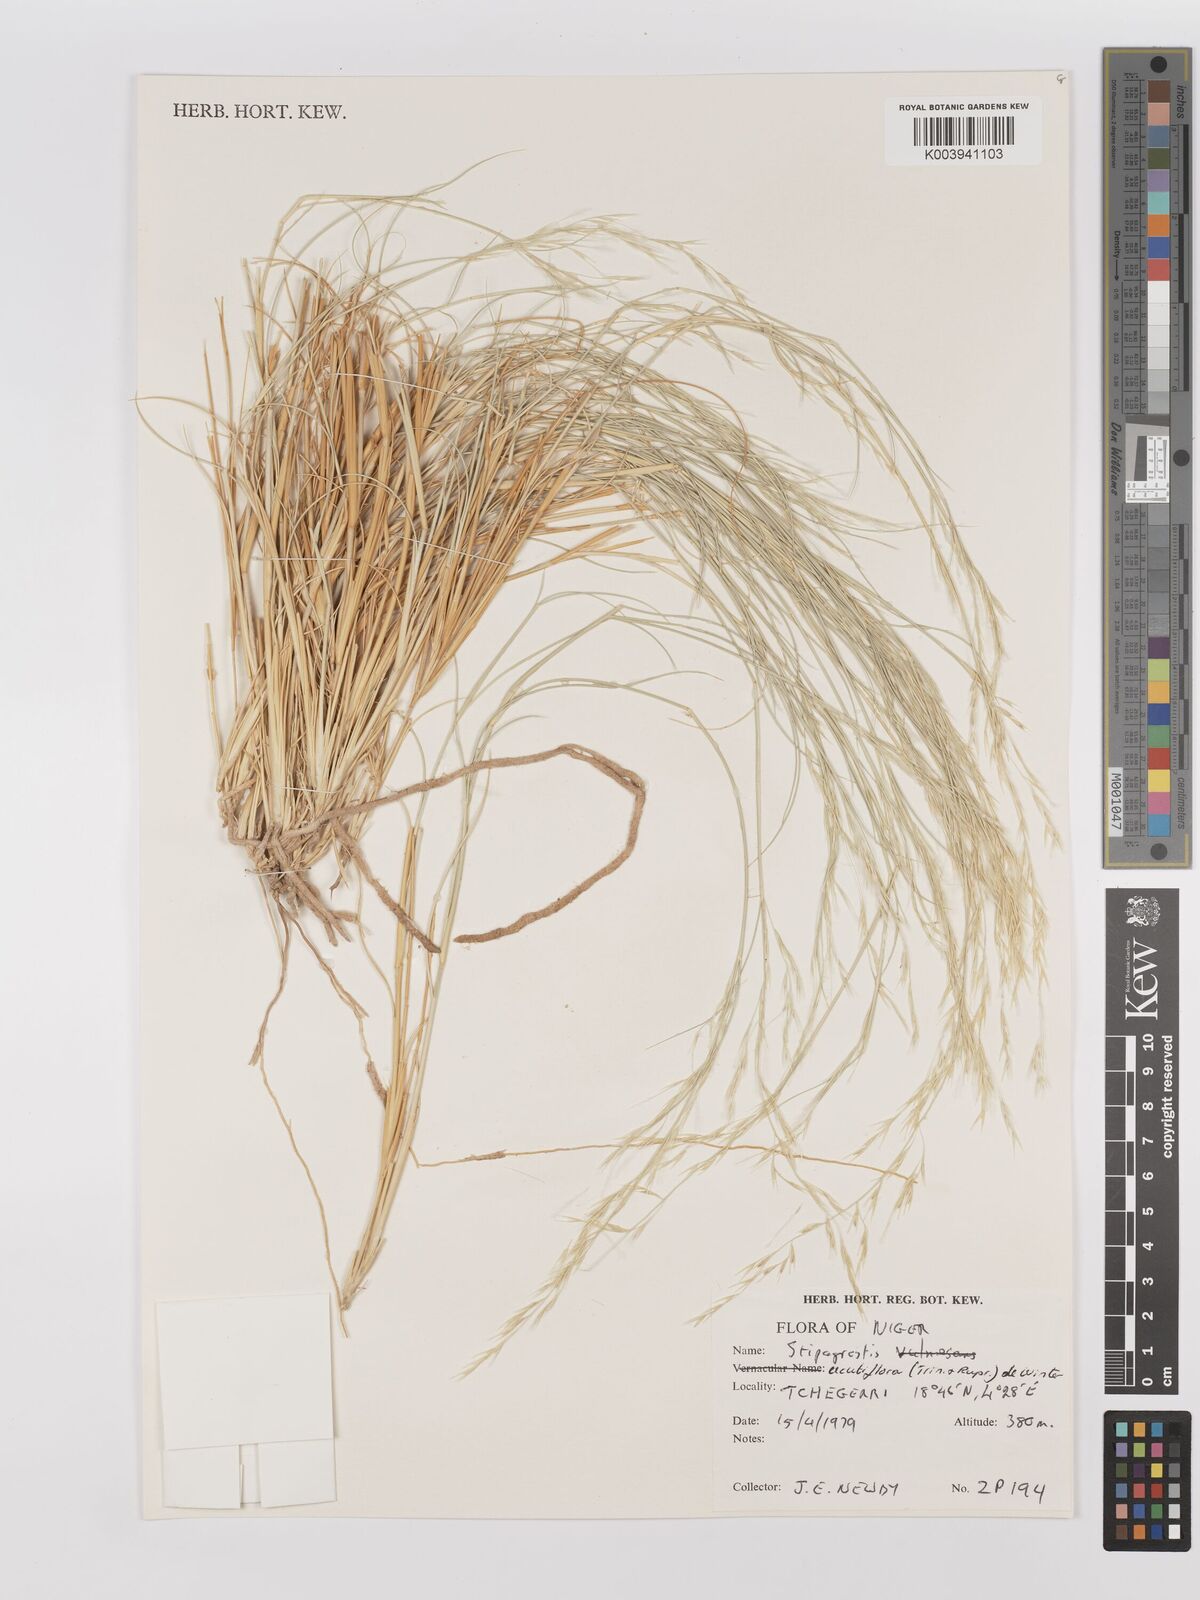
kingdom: Plantae
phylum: Tracheophyta
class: Liliopsida
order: Poales
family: Poaceae
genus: Stipagrostis
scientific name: Stipagrostis acutiflora
